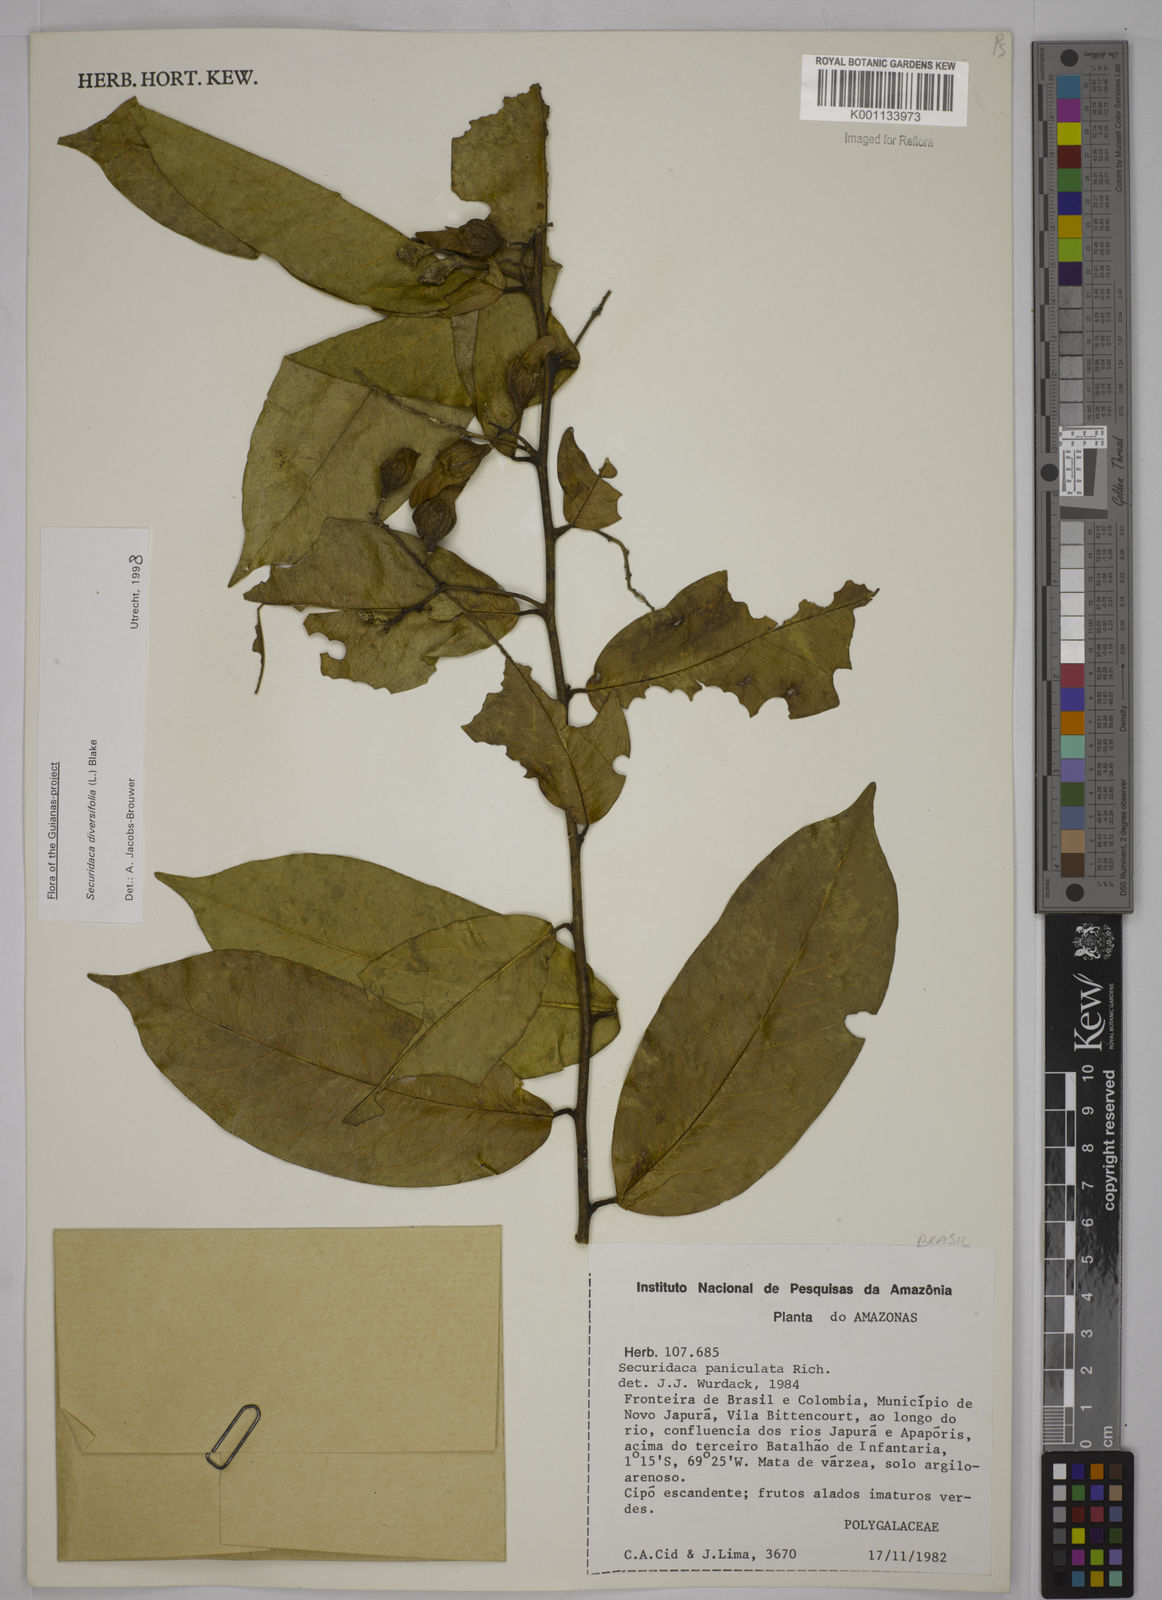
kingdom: Plantae
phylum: Tracheophyta
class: Magnoliopsida
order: Fabales
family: Polygalaceae
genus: Securidaca
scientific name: Securidaca diversifolia
